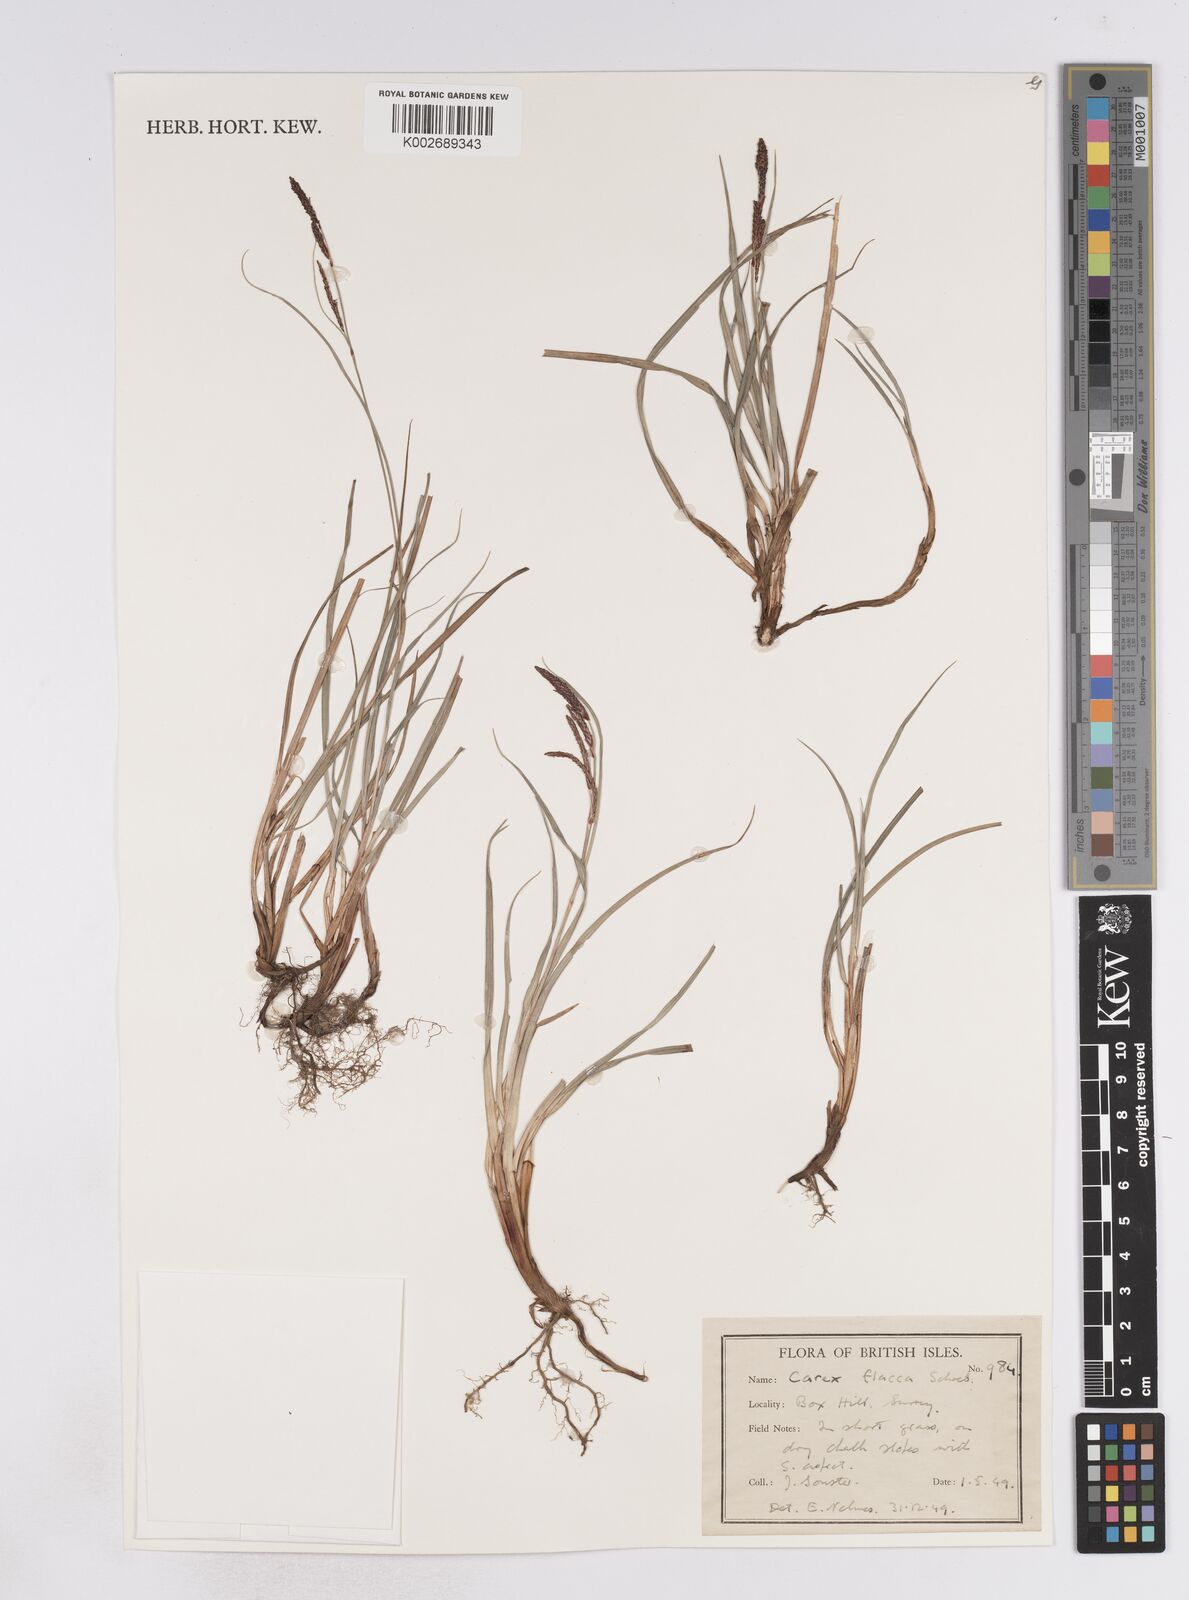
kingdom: Plantae
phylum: Tracheophyta
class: Liliopsida
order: Poales
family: Cyperaceae
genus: Carex
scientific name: Carex flacca
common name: Glaucous sedge
